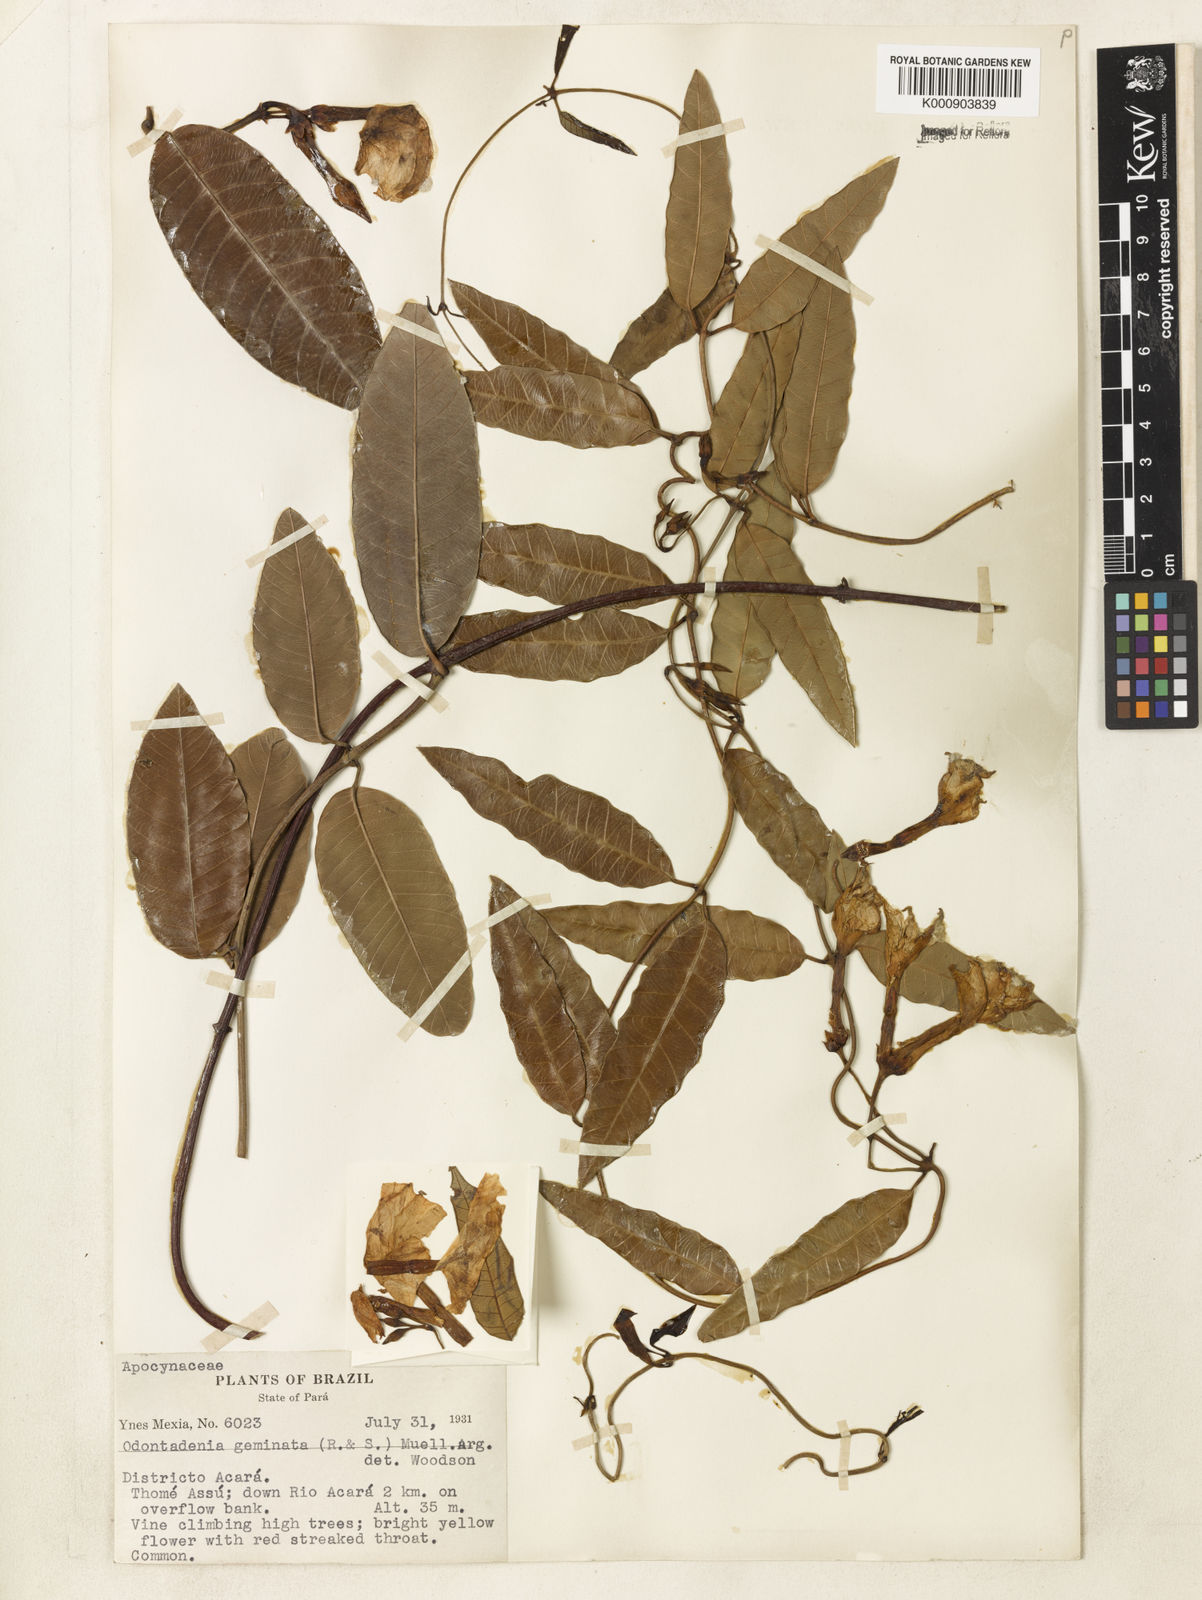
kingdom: Plantae
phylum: Tracheophyta
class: Magnoliopsida
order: Gentianales
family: Apocynaceae
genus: Odontadenia
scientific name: Odontadenia
